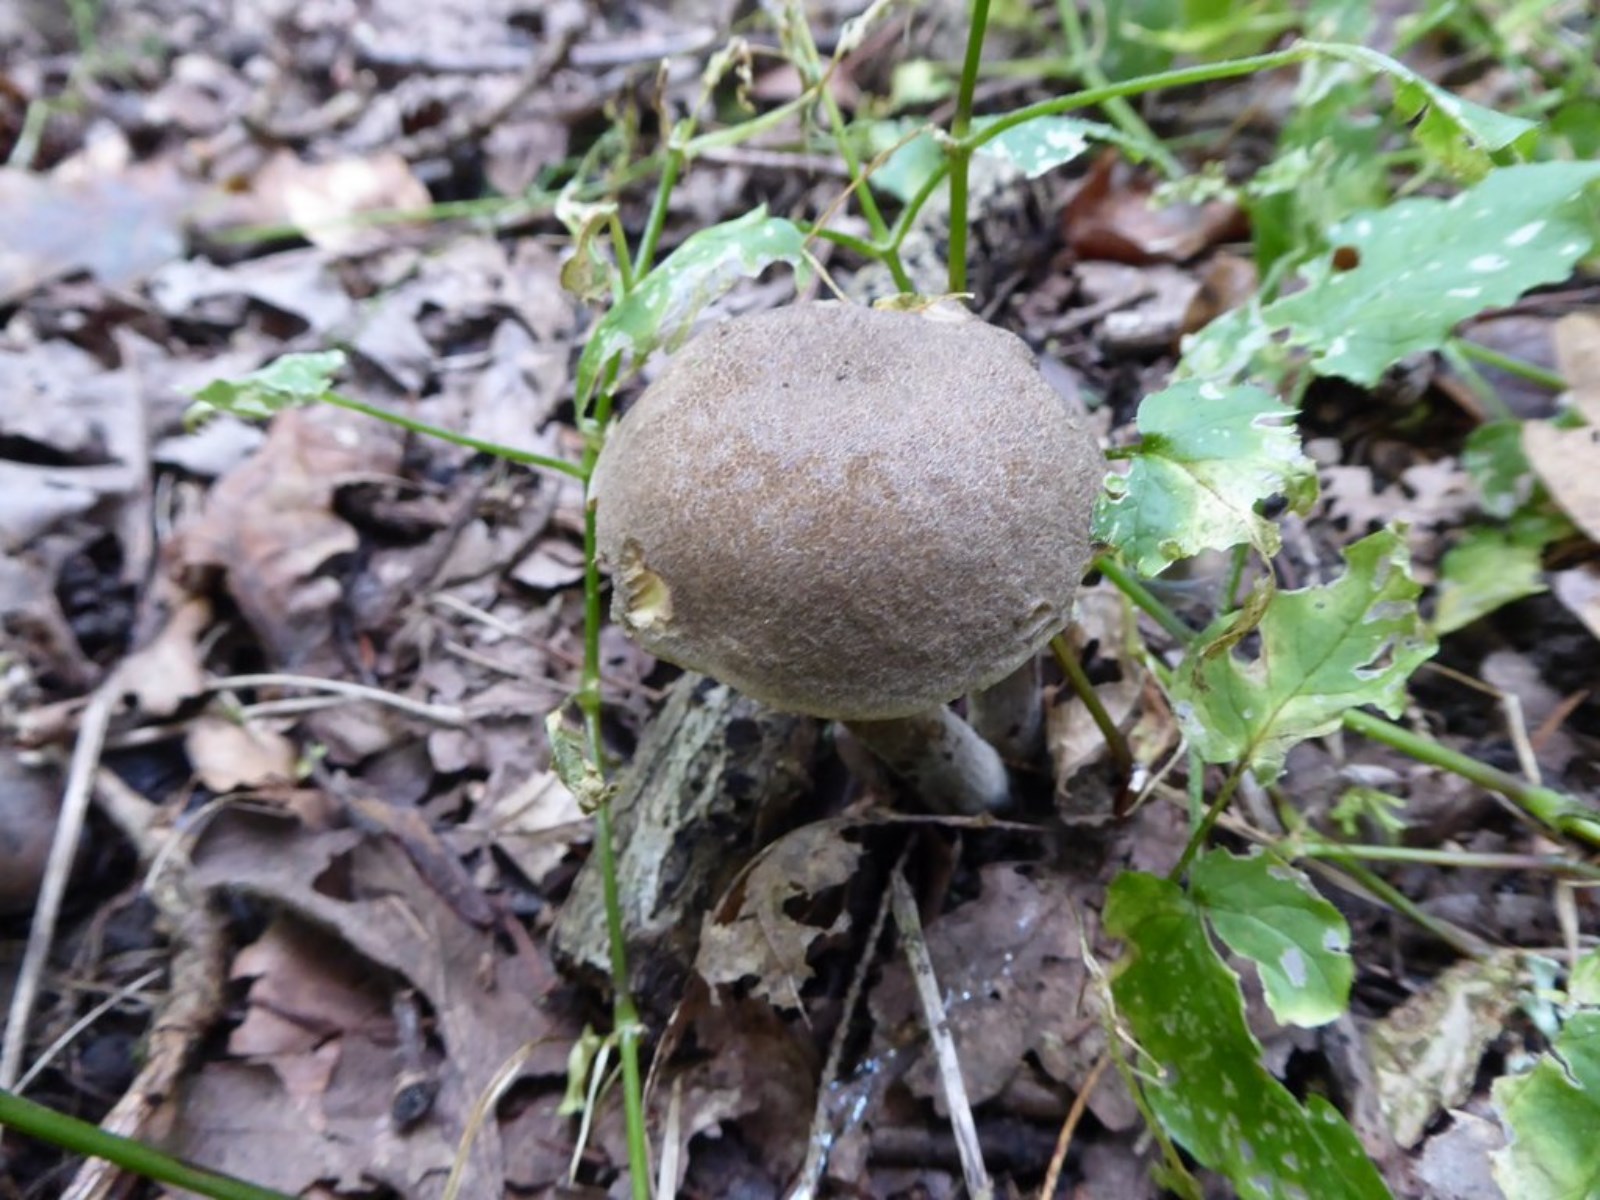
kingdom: Fungi
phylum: Basidiomycota
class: Agaricomycetes
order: Boletales
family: Boletaceae
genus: Xerocomellus
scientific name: Xerocomellus porosporus
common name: hvidsprukken rørhat
